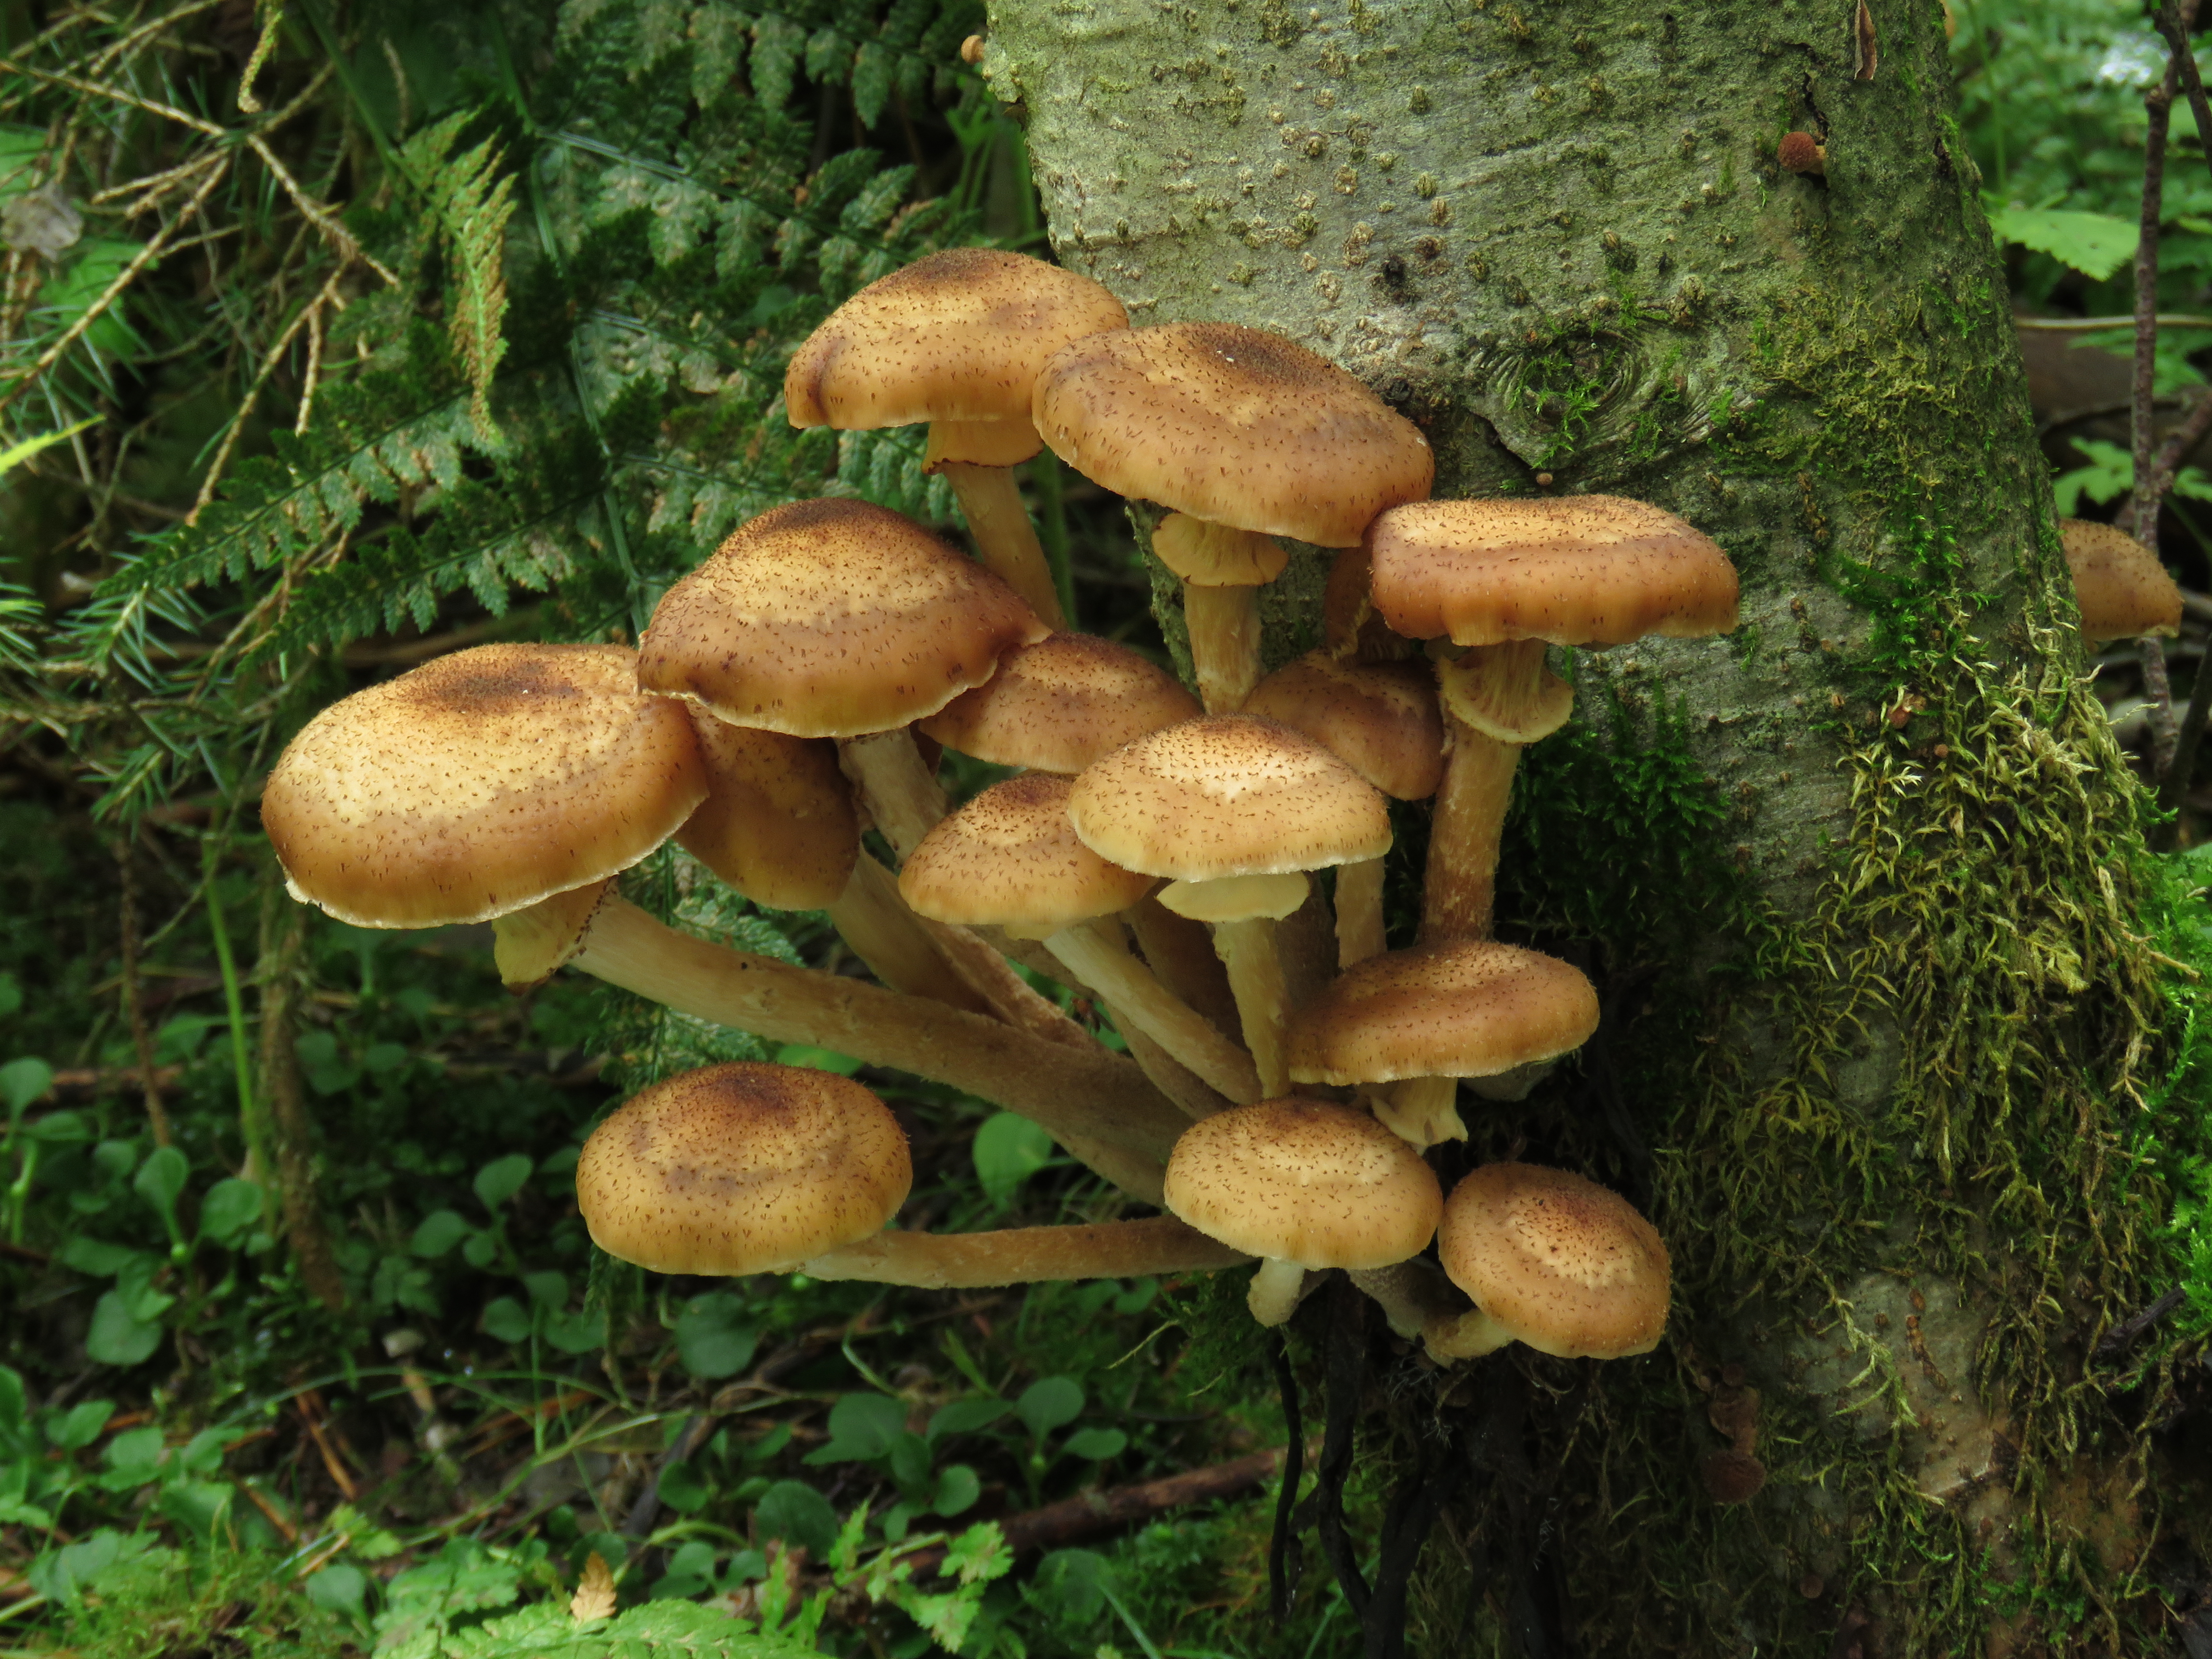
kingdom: Fungi
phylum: Basidiomycota
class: Agaricomycetes
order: Agaricales
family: Physalacriaceae
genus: Armillaria
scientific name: Armillaria borealis
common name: Northern honey fungus
